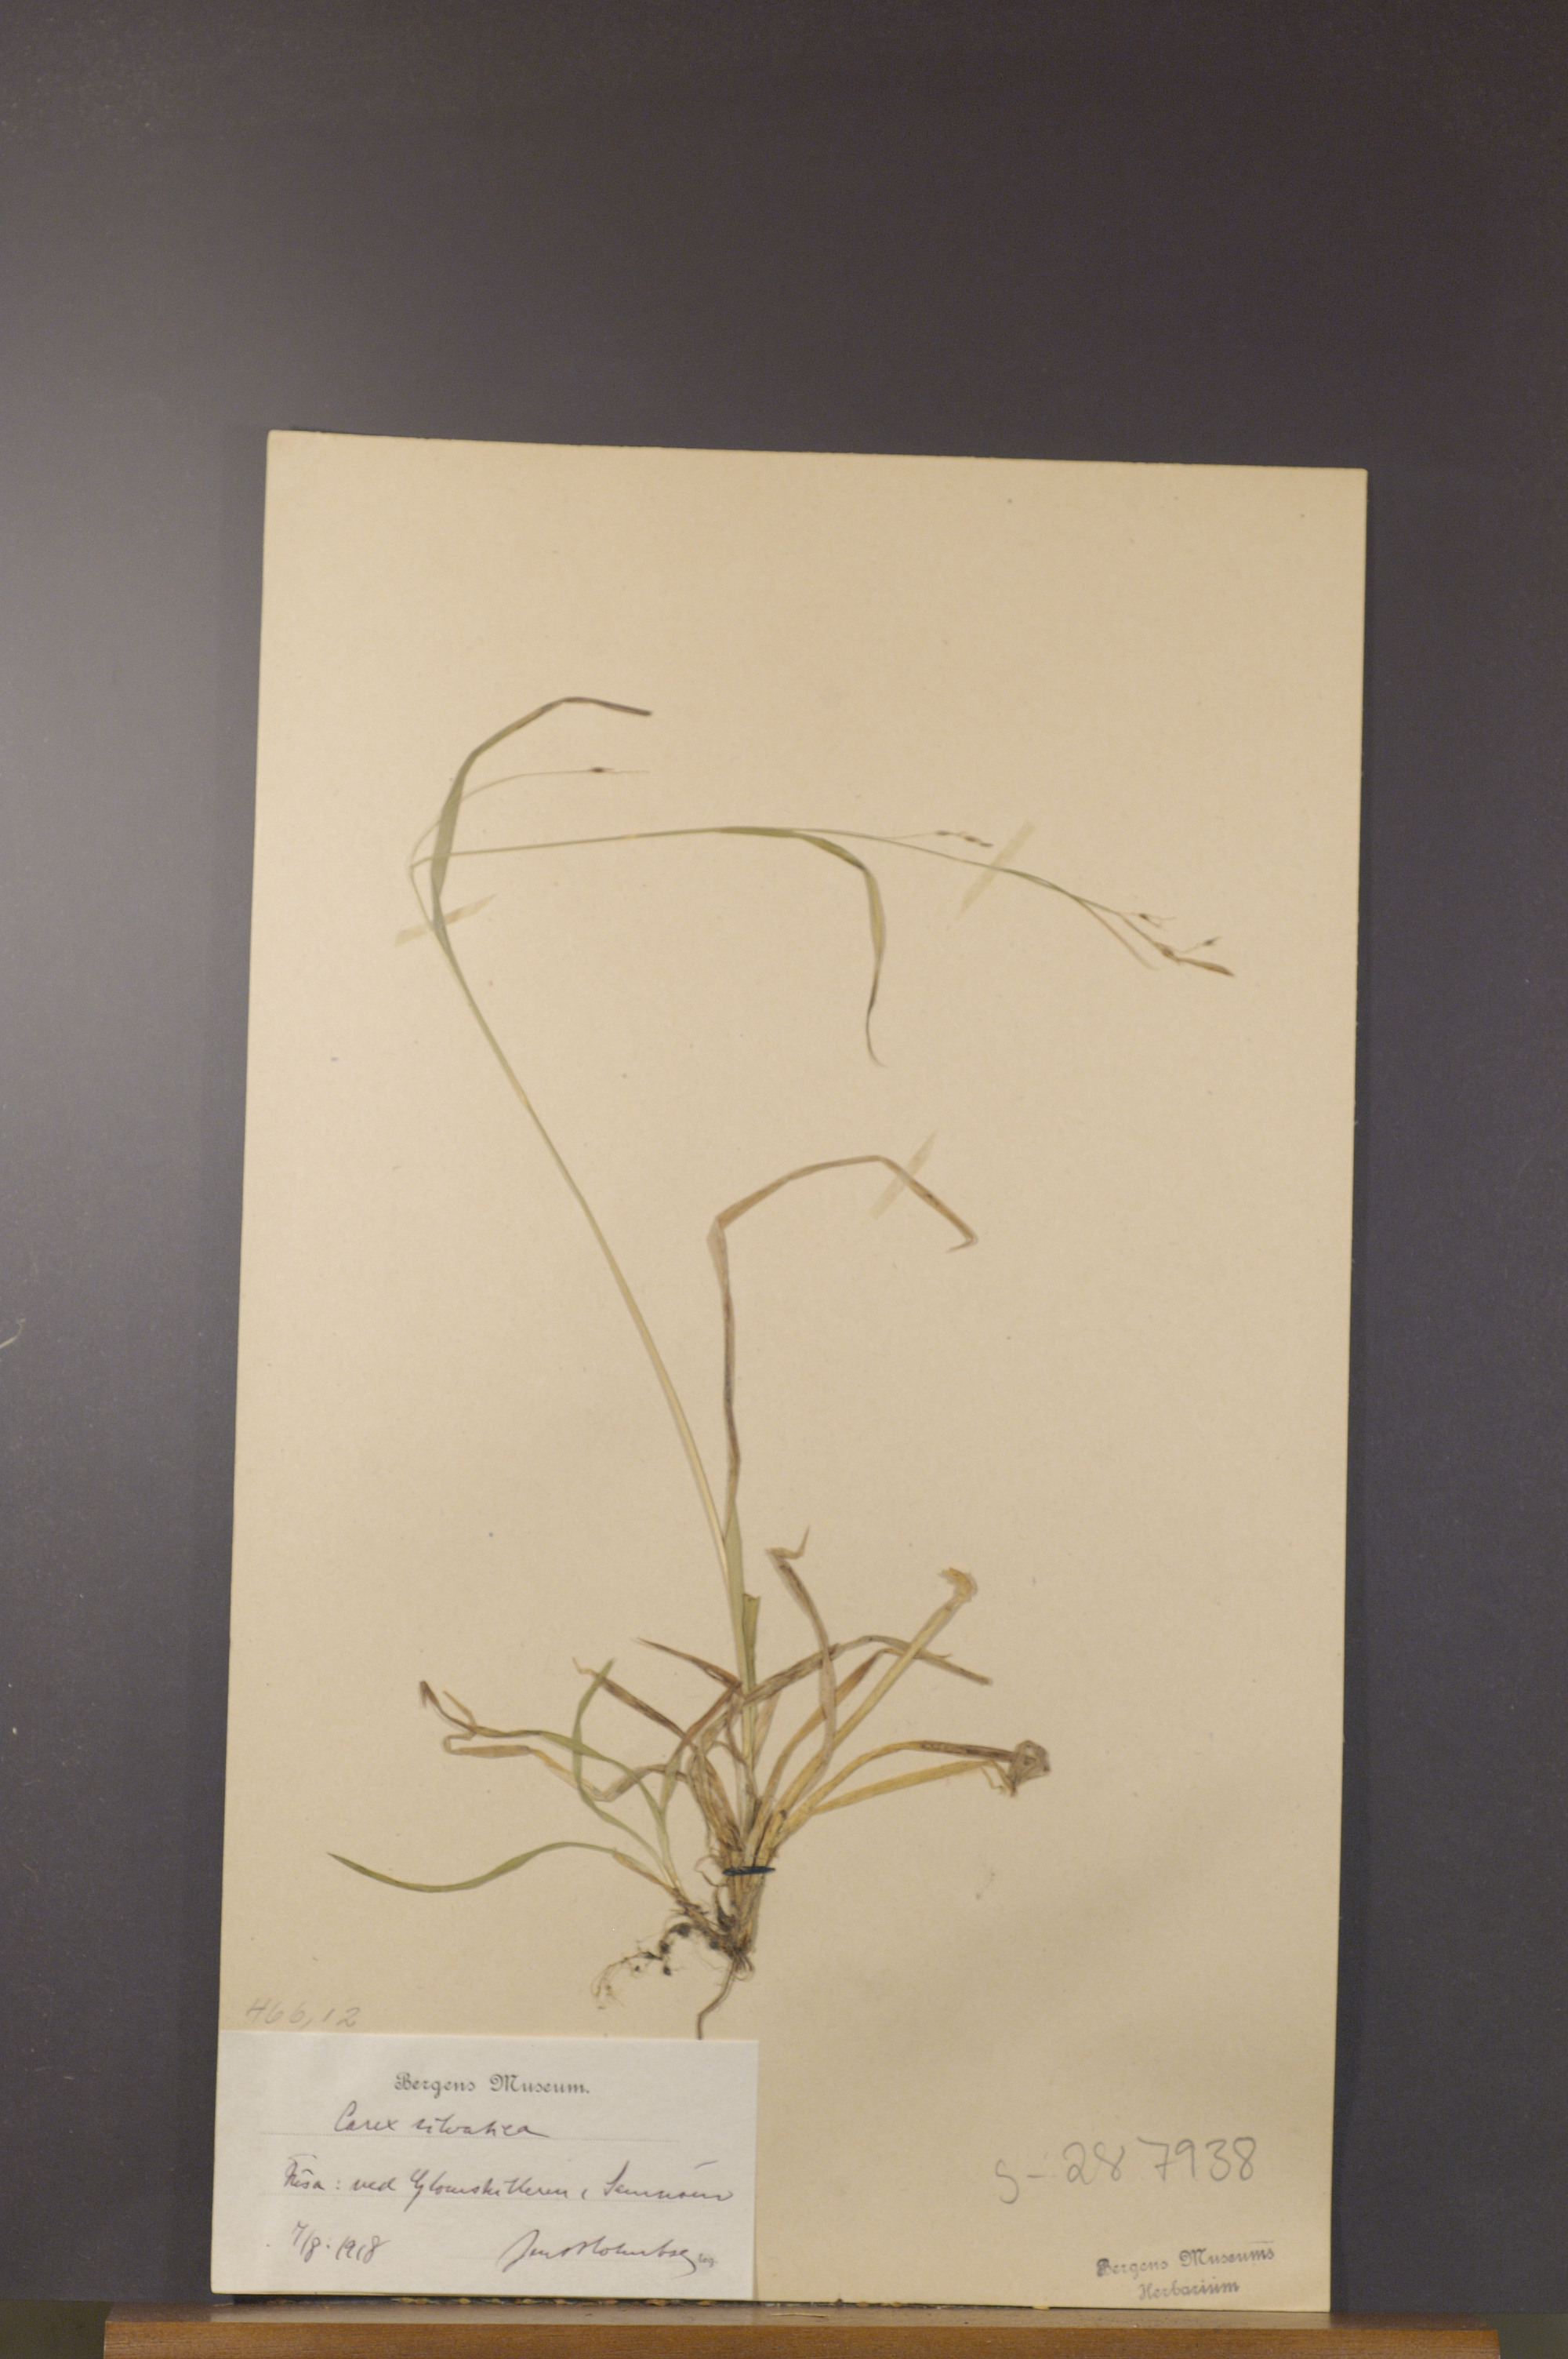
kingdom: Plantae
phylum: Tracheophyta
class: Liliopsida
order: Poales
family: Cyperaceae
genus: Carex
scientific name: Carex sylvatica
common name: Wood-sedge
